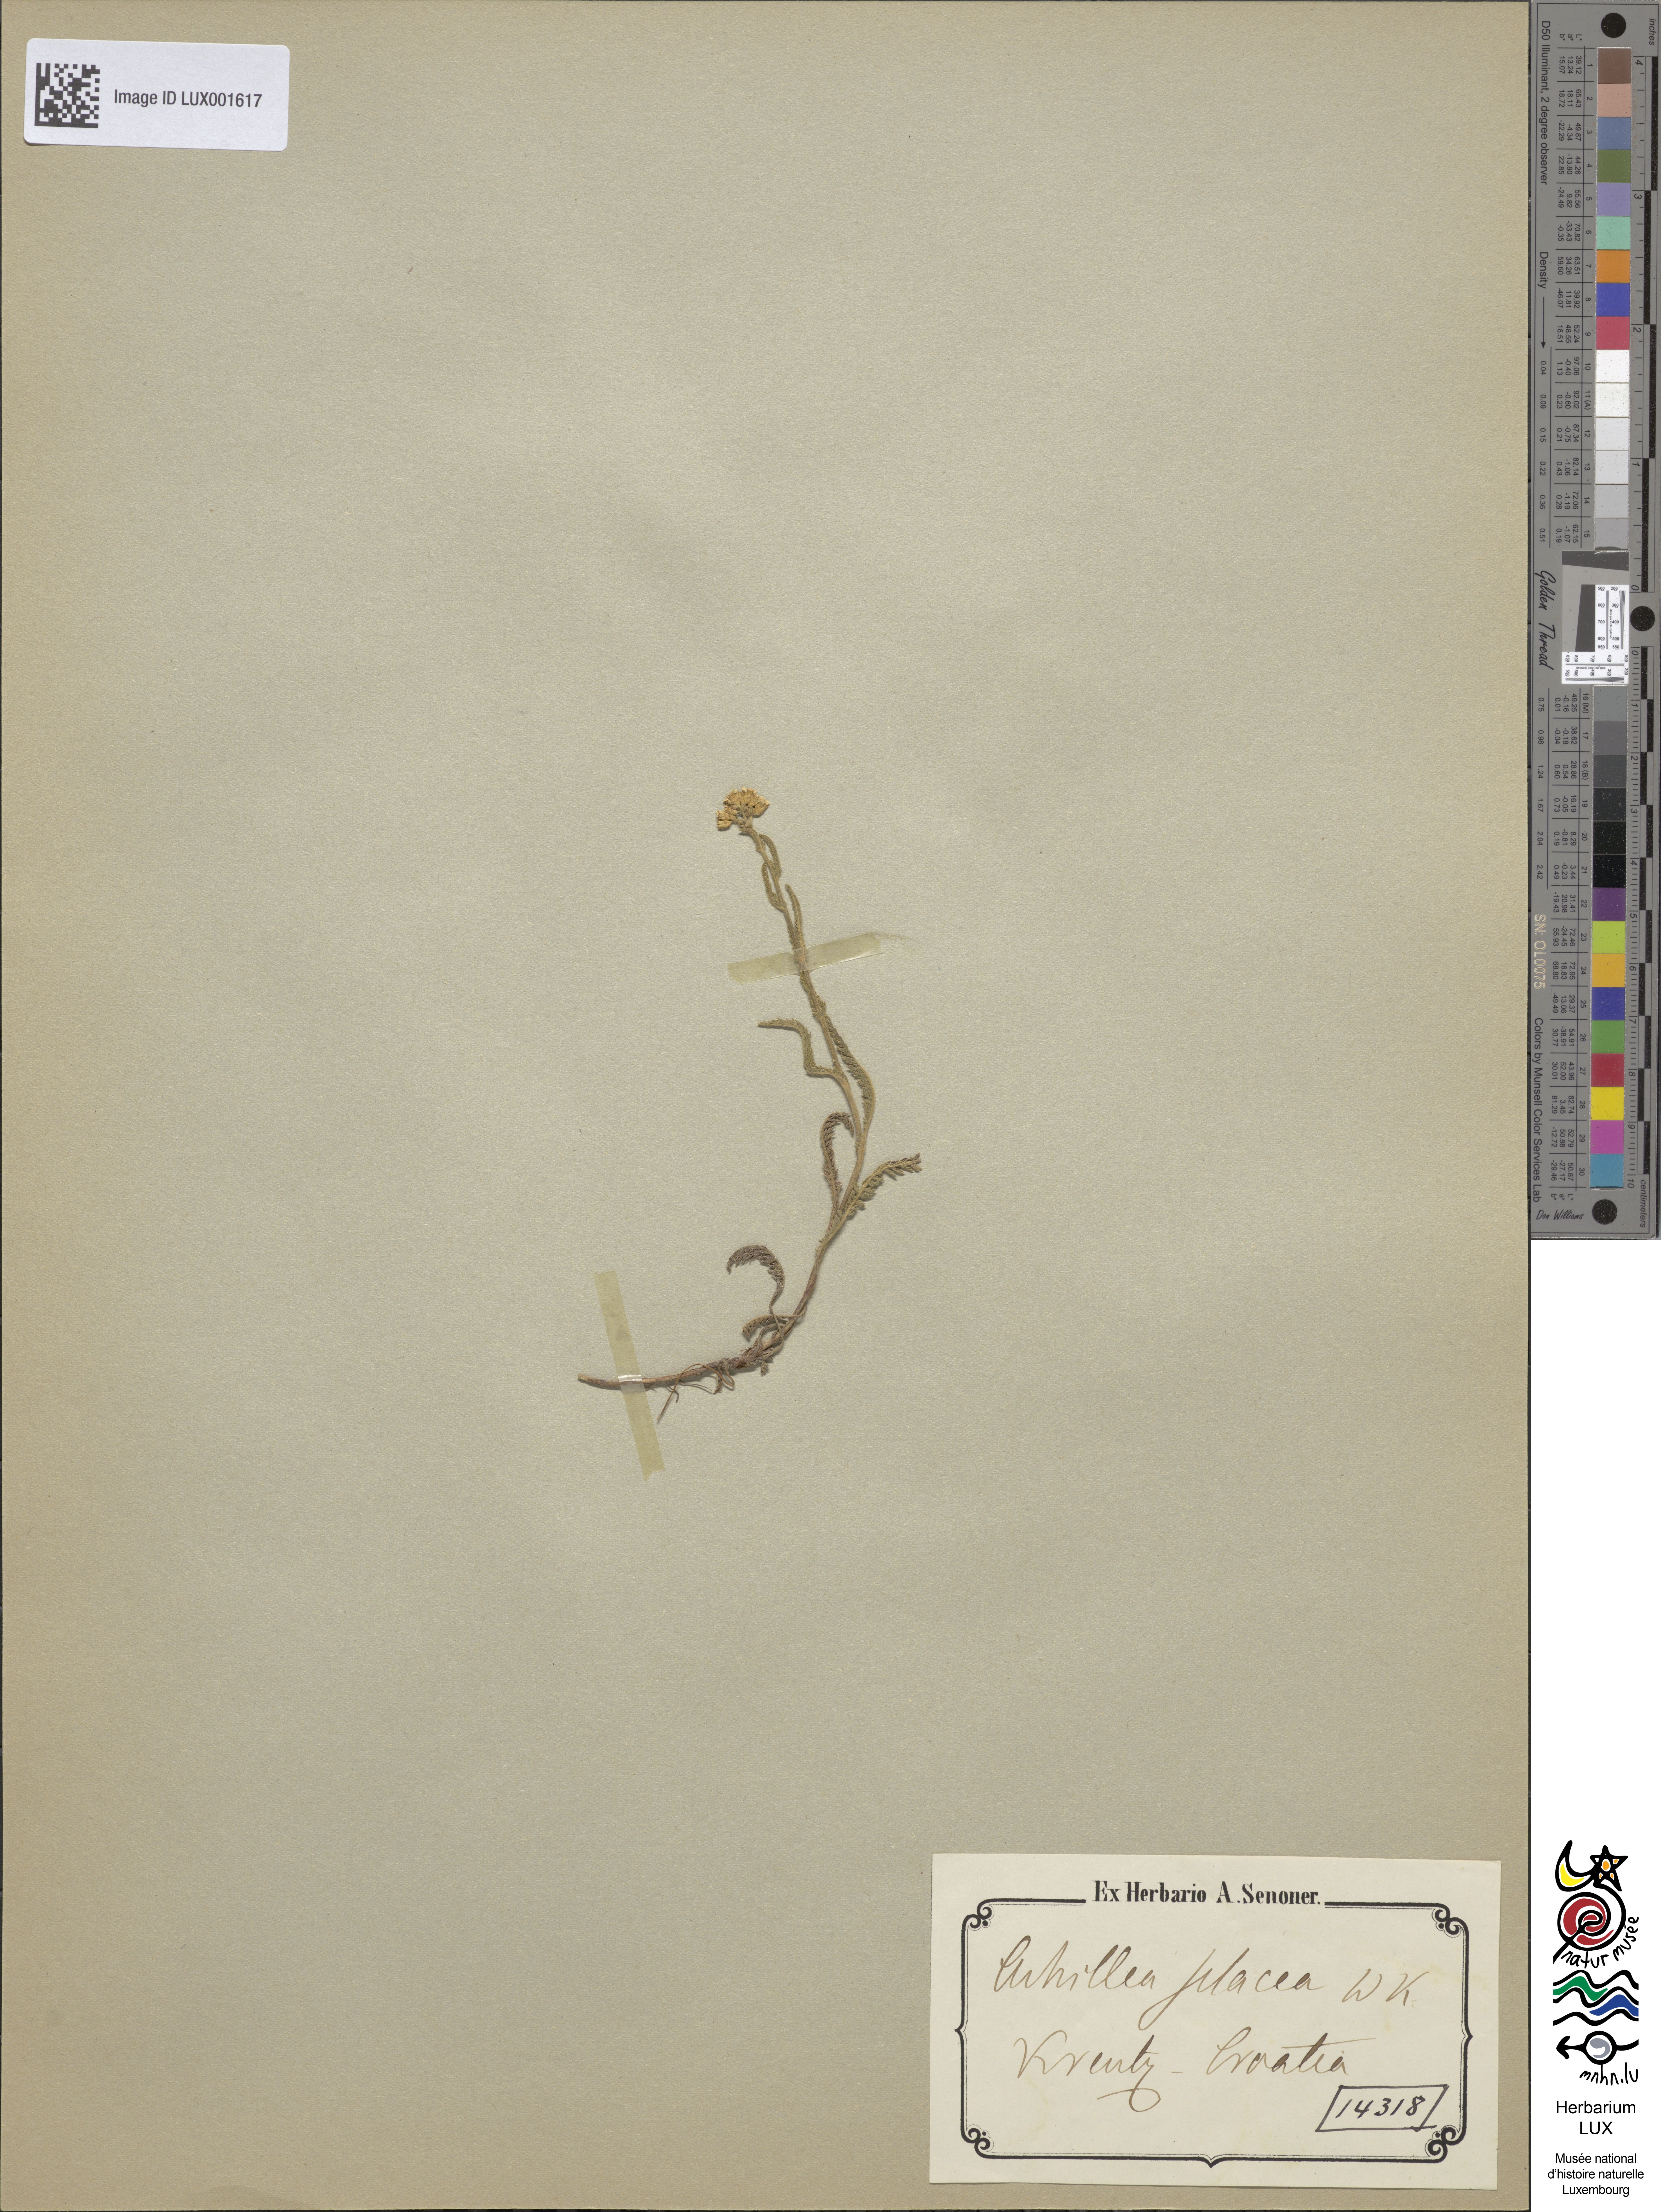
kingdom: Plantae
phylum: Tracheophyta
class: Magnoliopsida
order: Asterales
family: Asteraceae
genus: Achillea
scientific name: Achillea setacea
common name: Bristly yarrow
